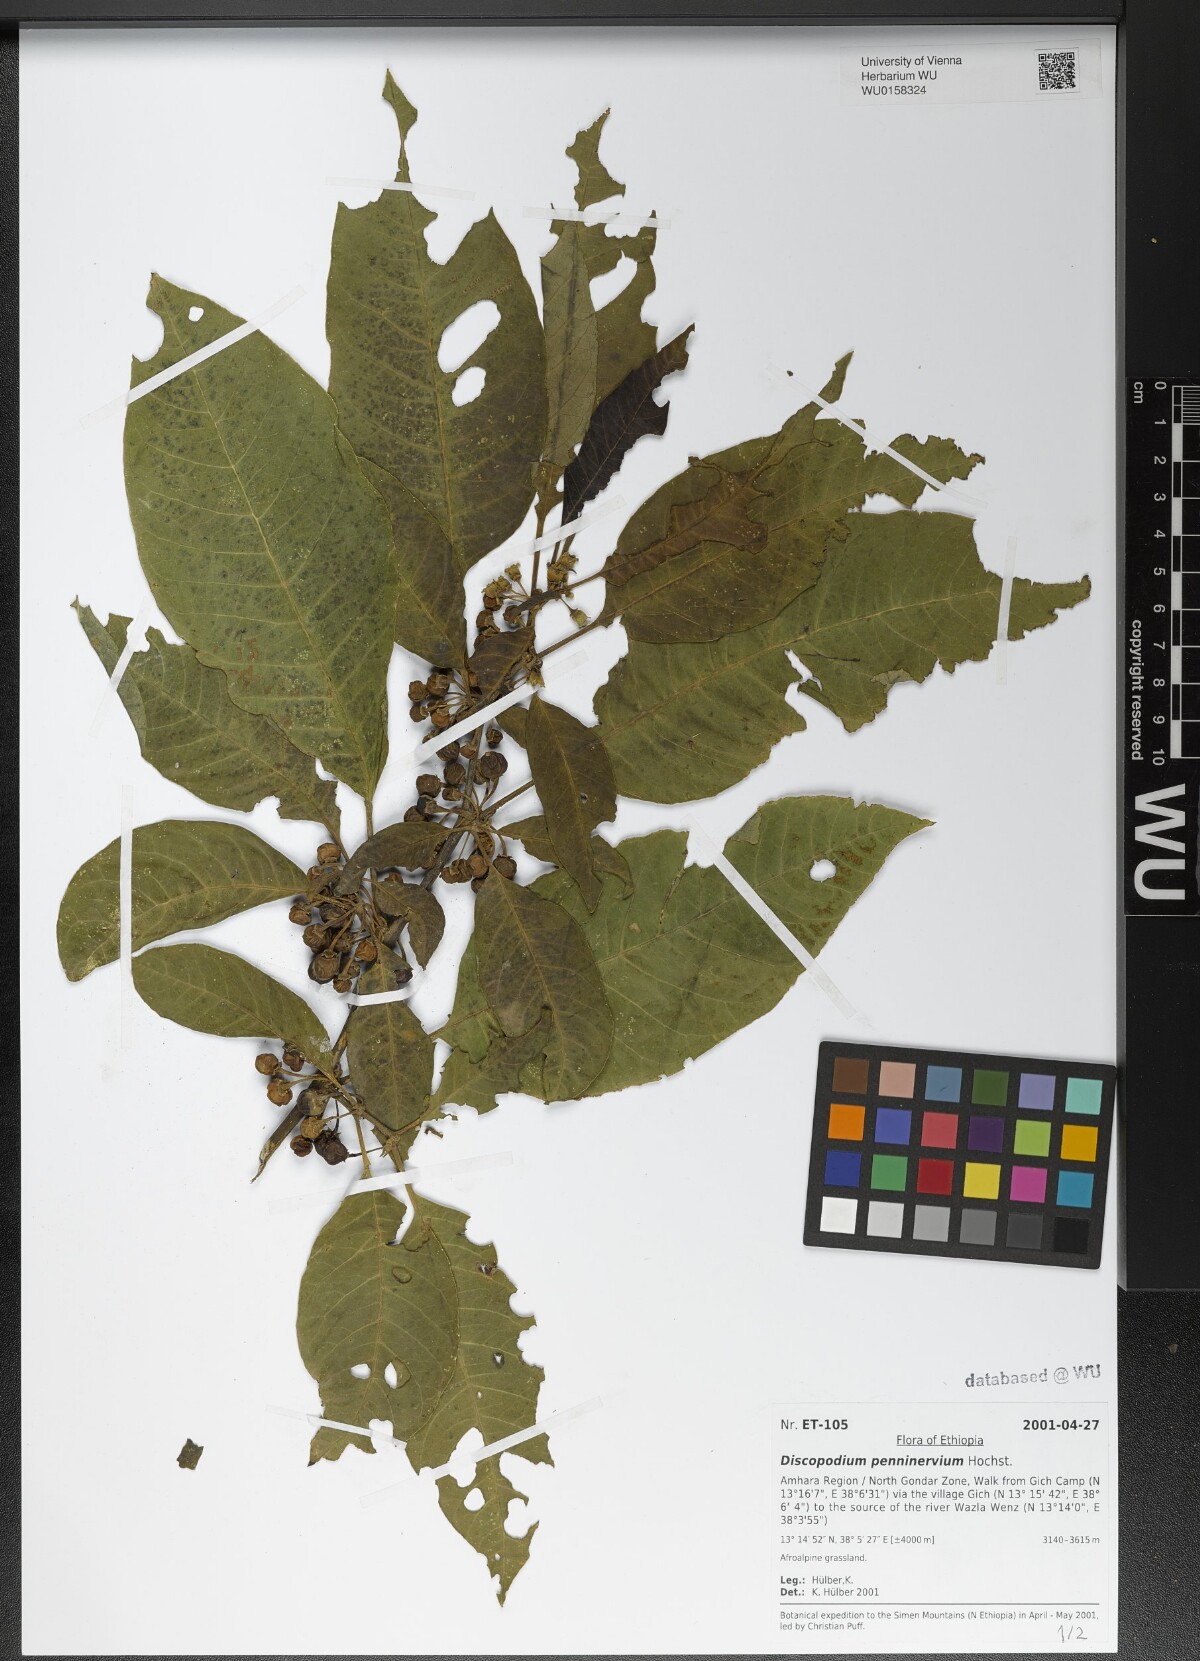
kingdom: Plantae
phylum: Tracheophyta
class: Magnoliopsida
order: Solanales
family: Solanaceae
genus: Discopodium
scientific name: Discopodium penninervium
